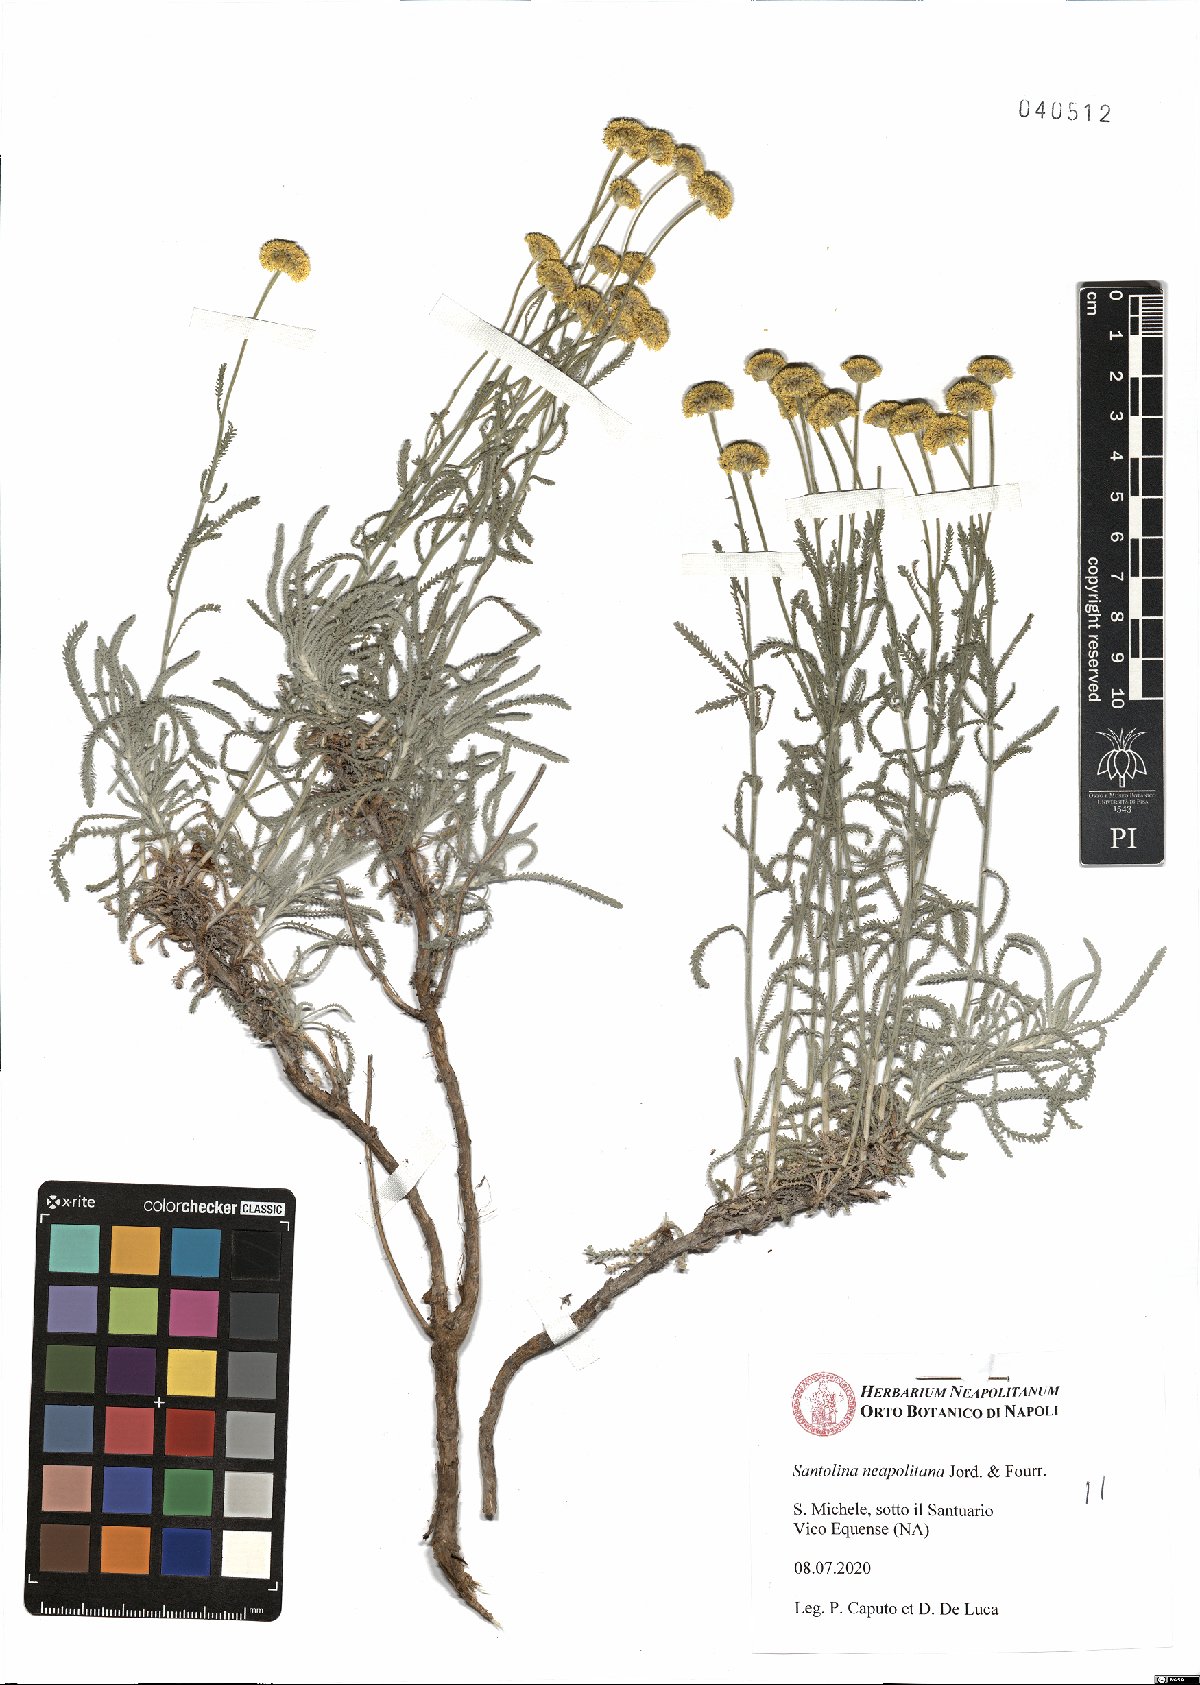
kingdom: Plantae
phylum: Tracheophyta
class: Magnoliopsida
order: Asterales
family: Asteraceae
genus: Santolina
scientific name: Santolina neapolitana
